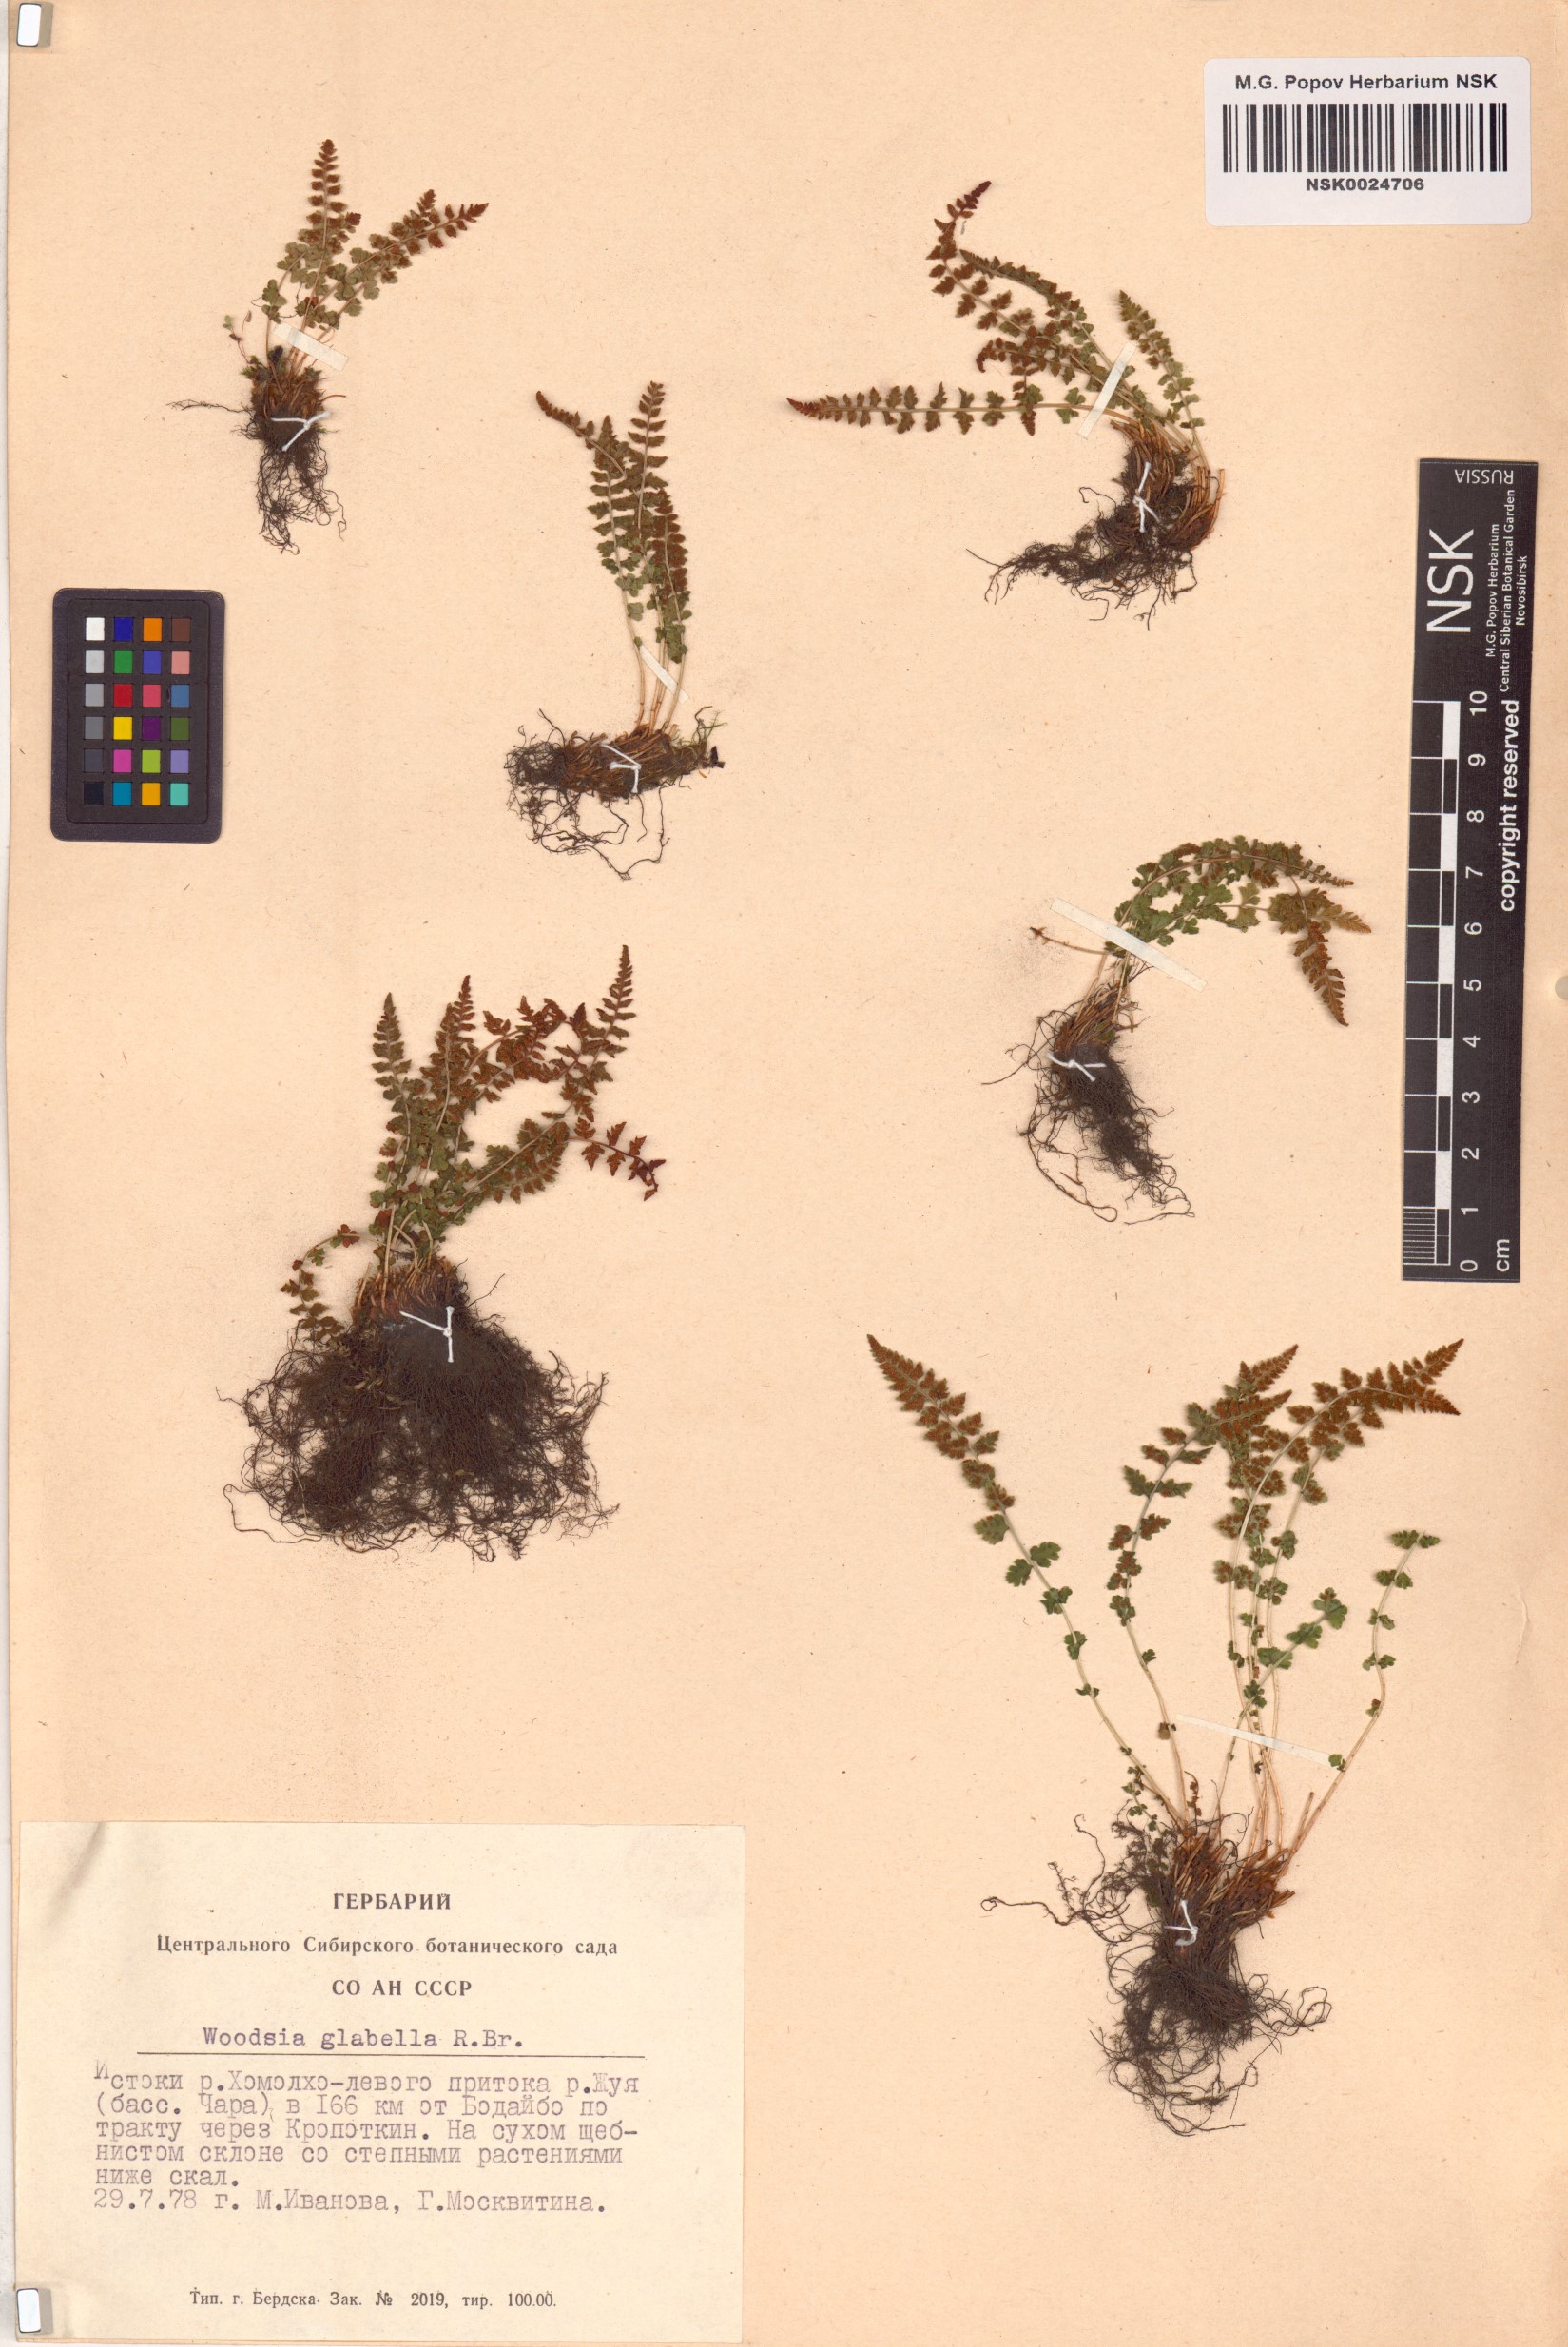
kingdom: Plantae
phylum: Tracheophyta
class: Polypodiopsida
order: Polypodiales
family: Woodsiaceae
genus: Woodsia
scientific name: Woodsia glabella
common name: Smooth woodsia
